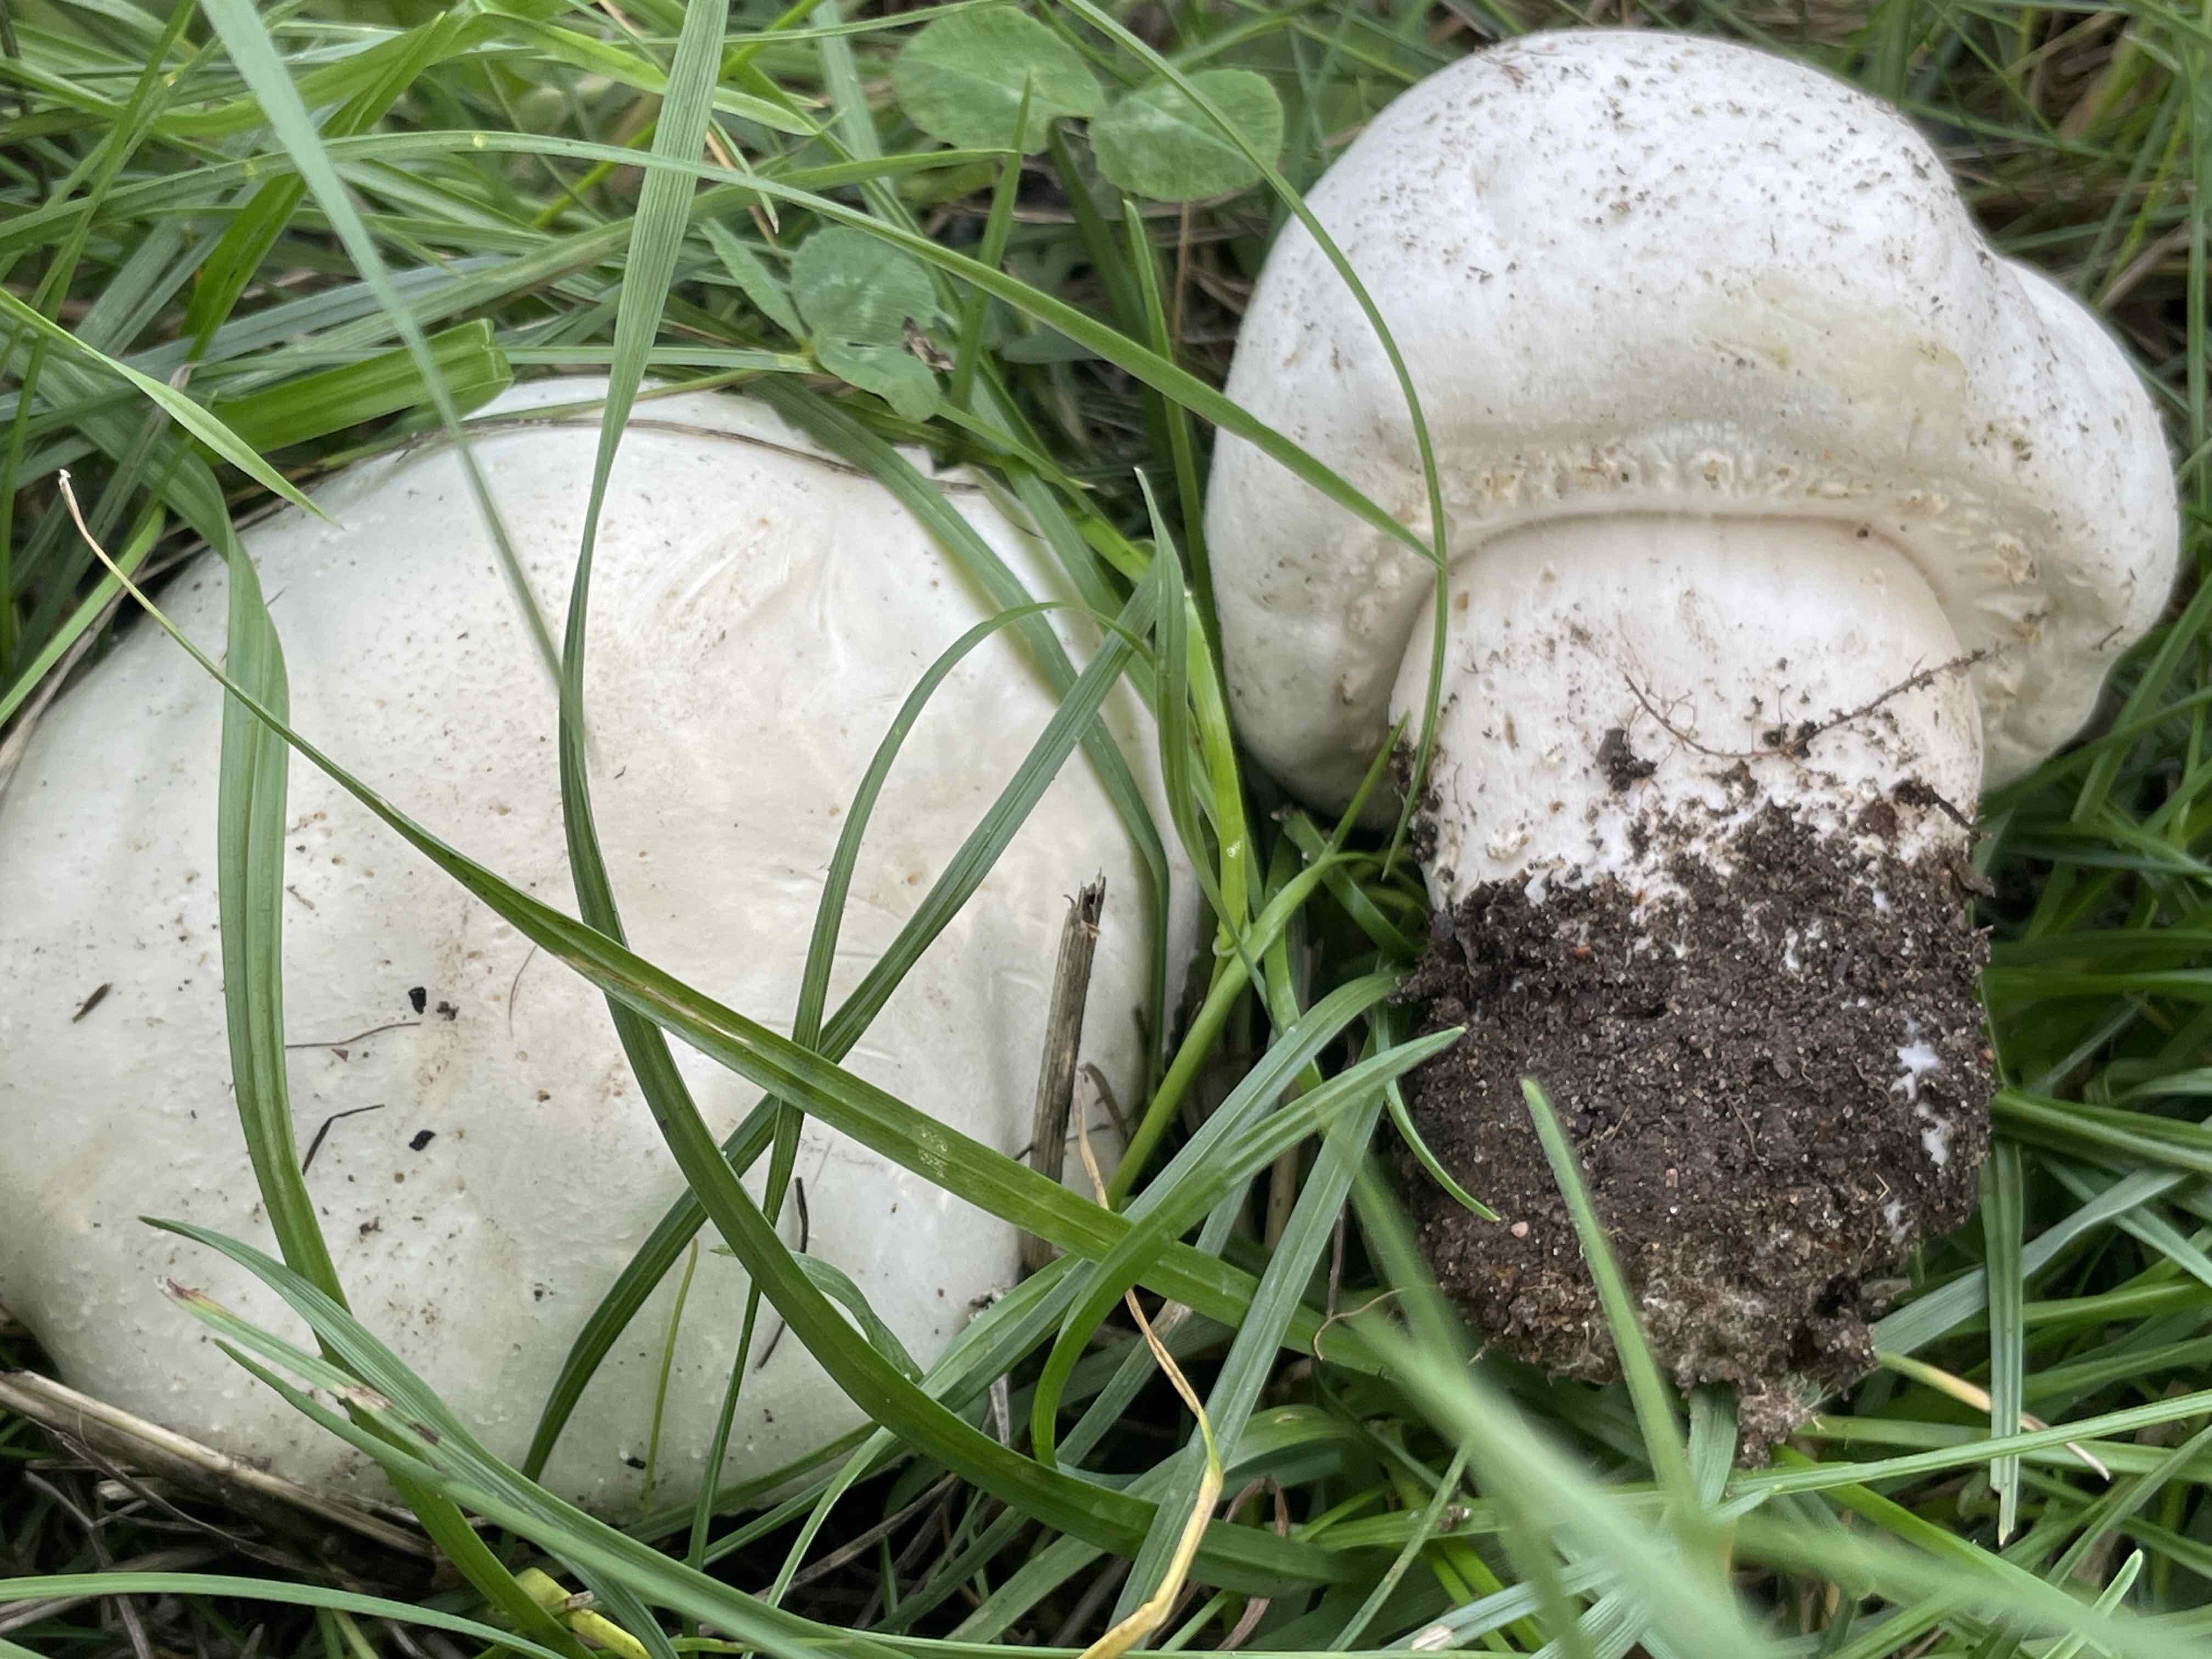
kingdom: Fungi
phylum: Basidiomycota
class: Agaricomycetes
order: Agaricales
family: Agaricaceae
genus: Agaricus
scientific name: Agaricus arvensis
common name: ager-champignon
